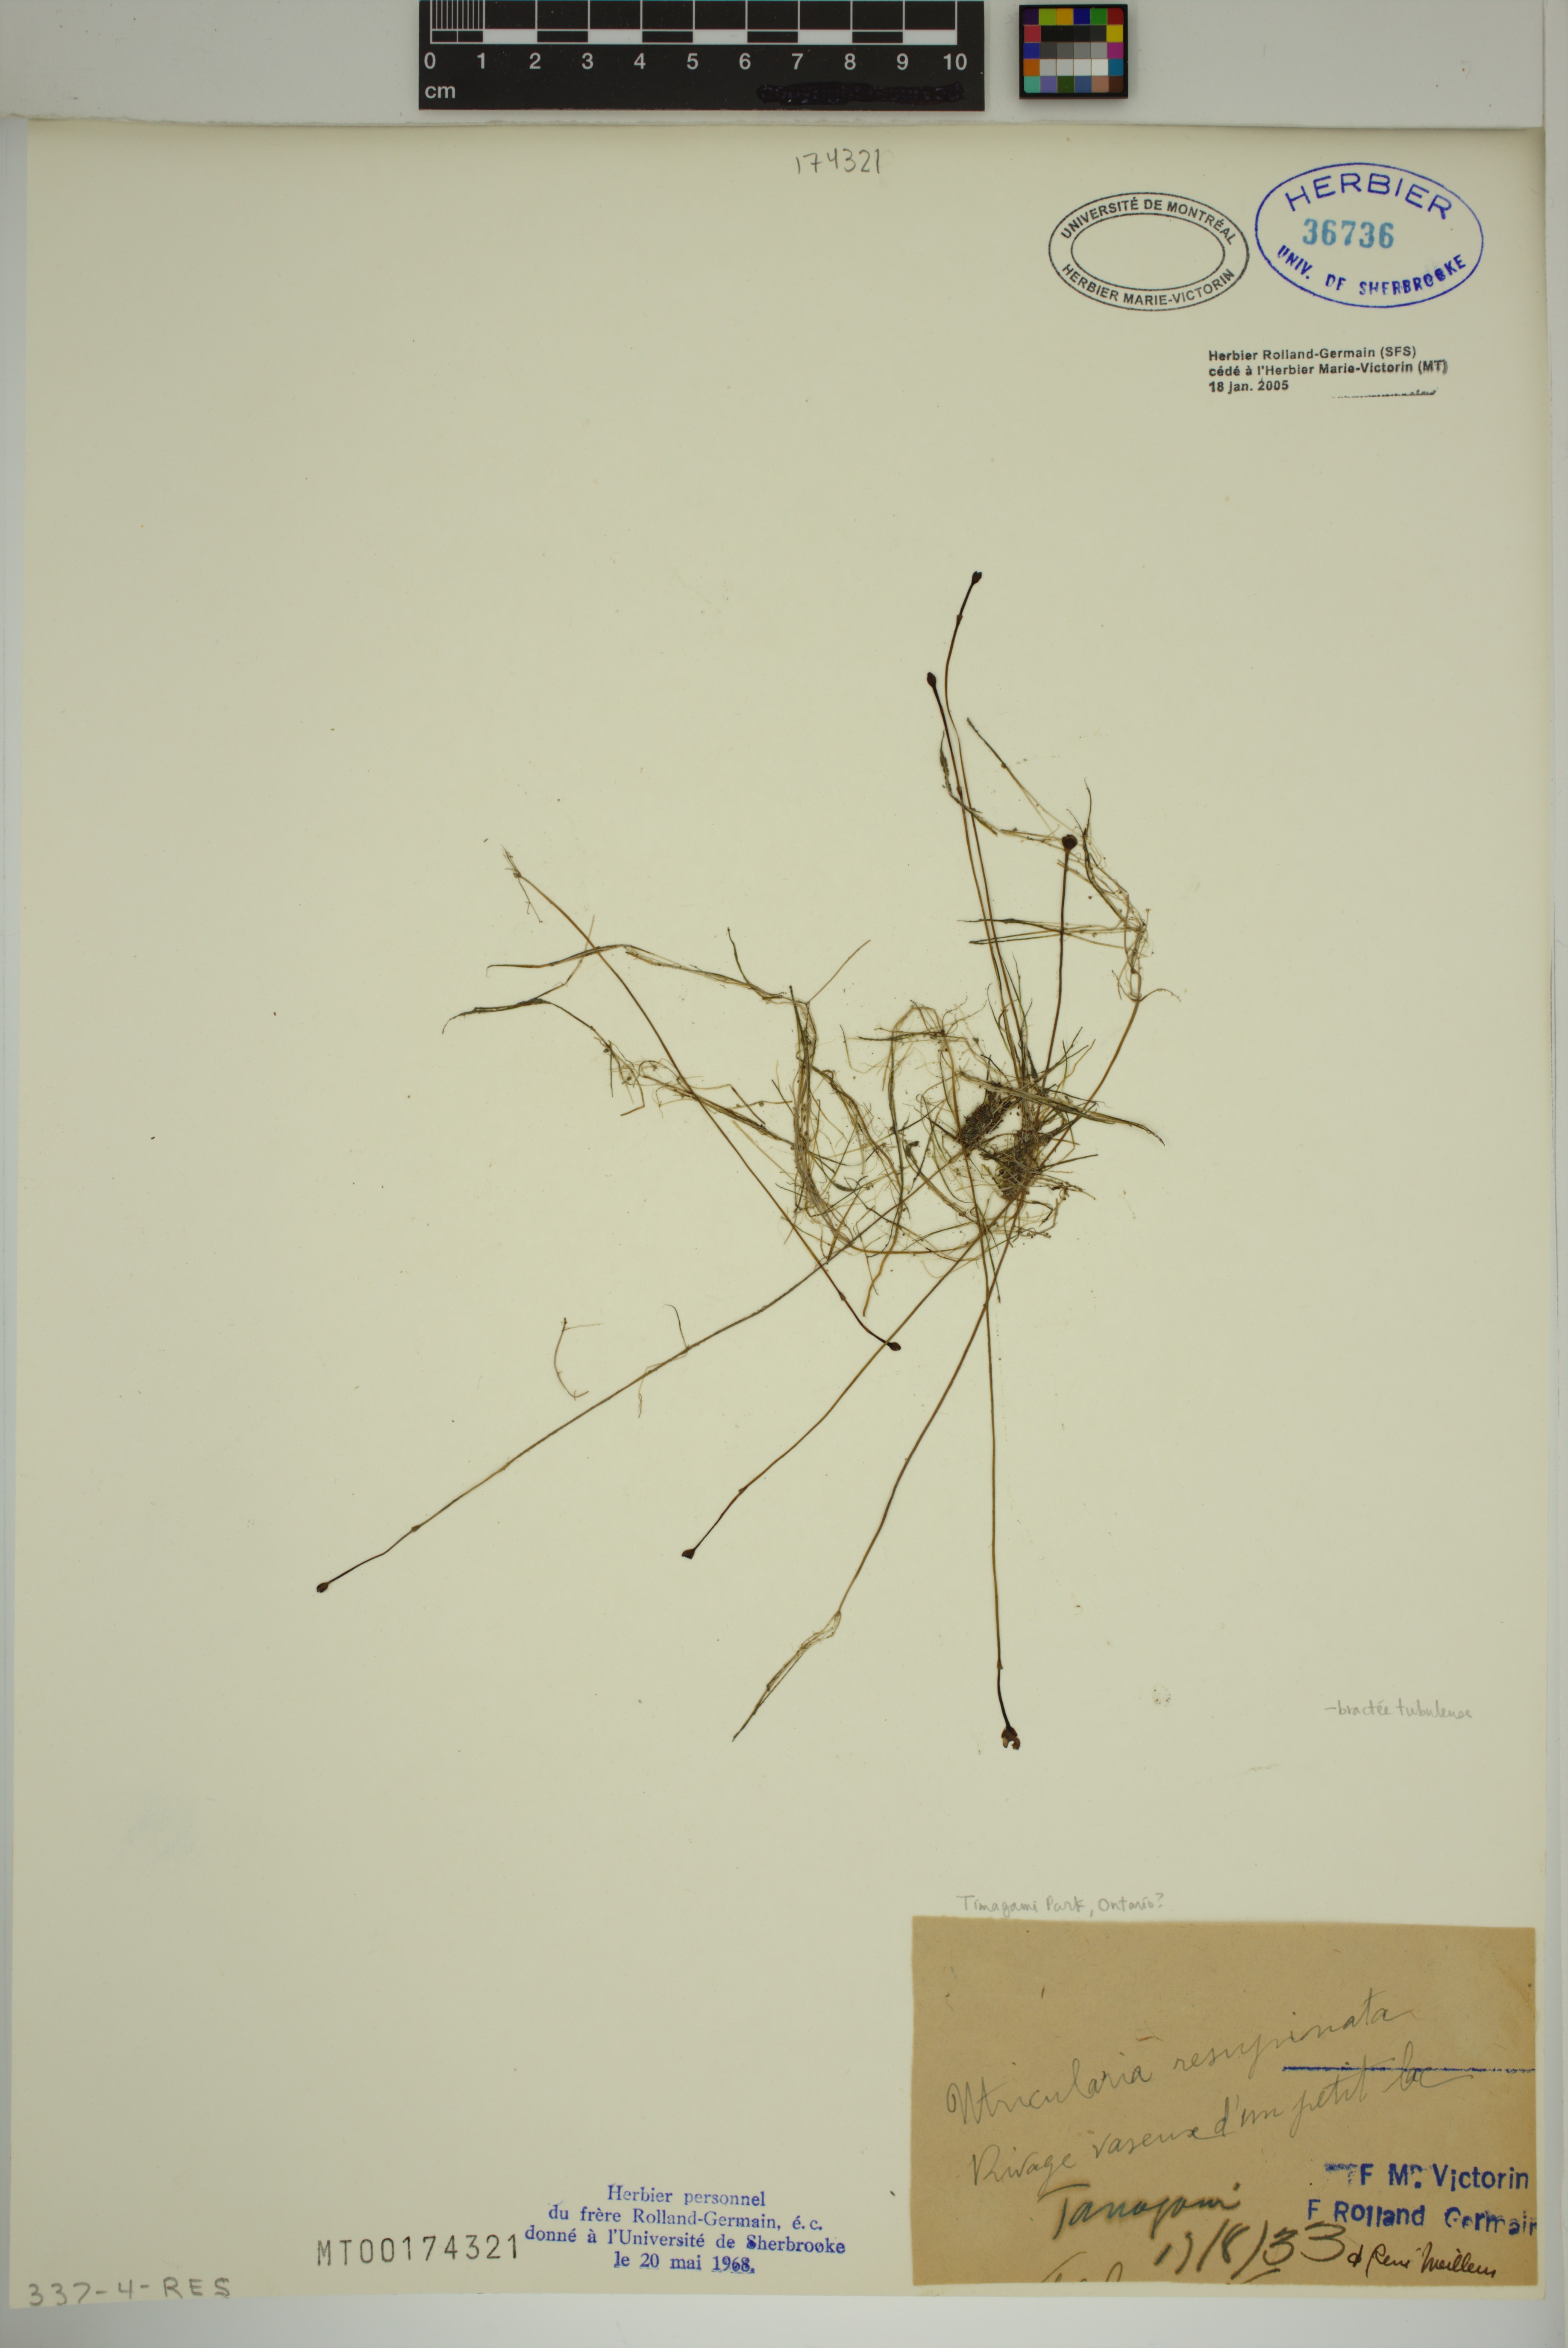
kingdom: Plantae
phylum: Tracheophyta
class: Magnoliopsida
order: Lamiales
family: Lentibulariaceae
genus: Utricularia
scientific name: Utricularia resupinata
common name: Northeastern bladderwort
